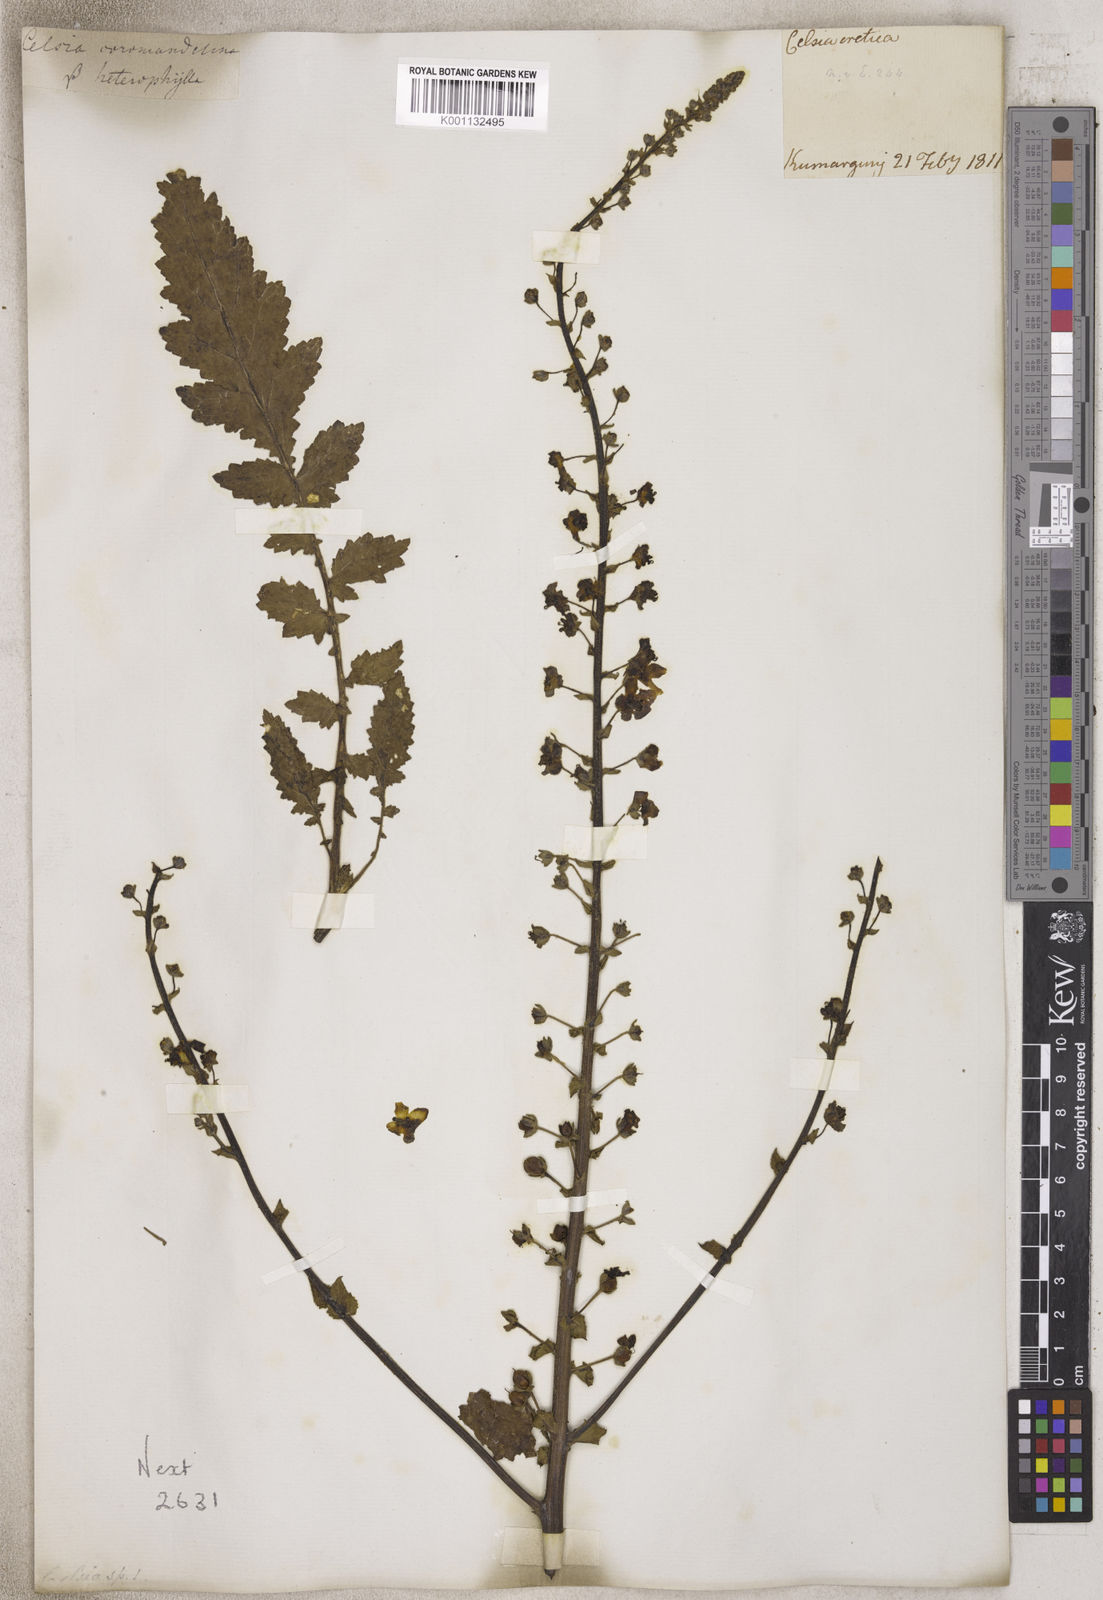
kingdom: Animalia
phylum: Arthropoda
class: Insecta
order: Lepidoptera
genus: Celsia
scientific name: Celsia
